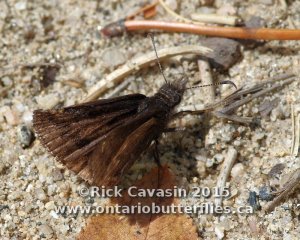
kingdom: Animalia
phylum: Arthropoda
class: Insecta
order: Lepidoptera
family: Hesperiidae
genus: Erynnis
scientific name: Erynnis icelus
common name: Dreamy Duskywing
